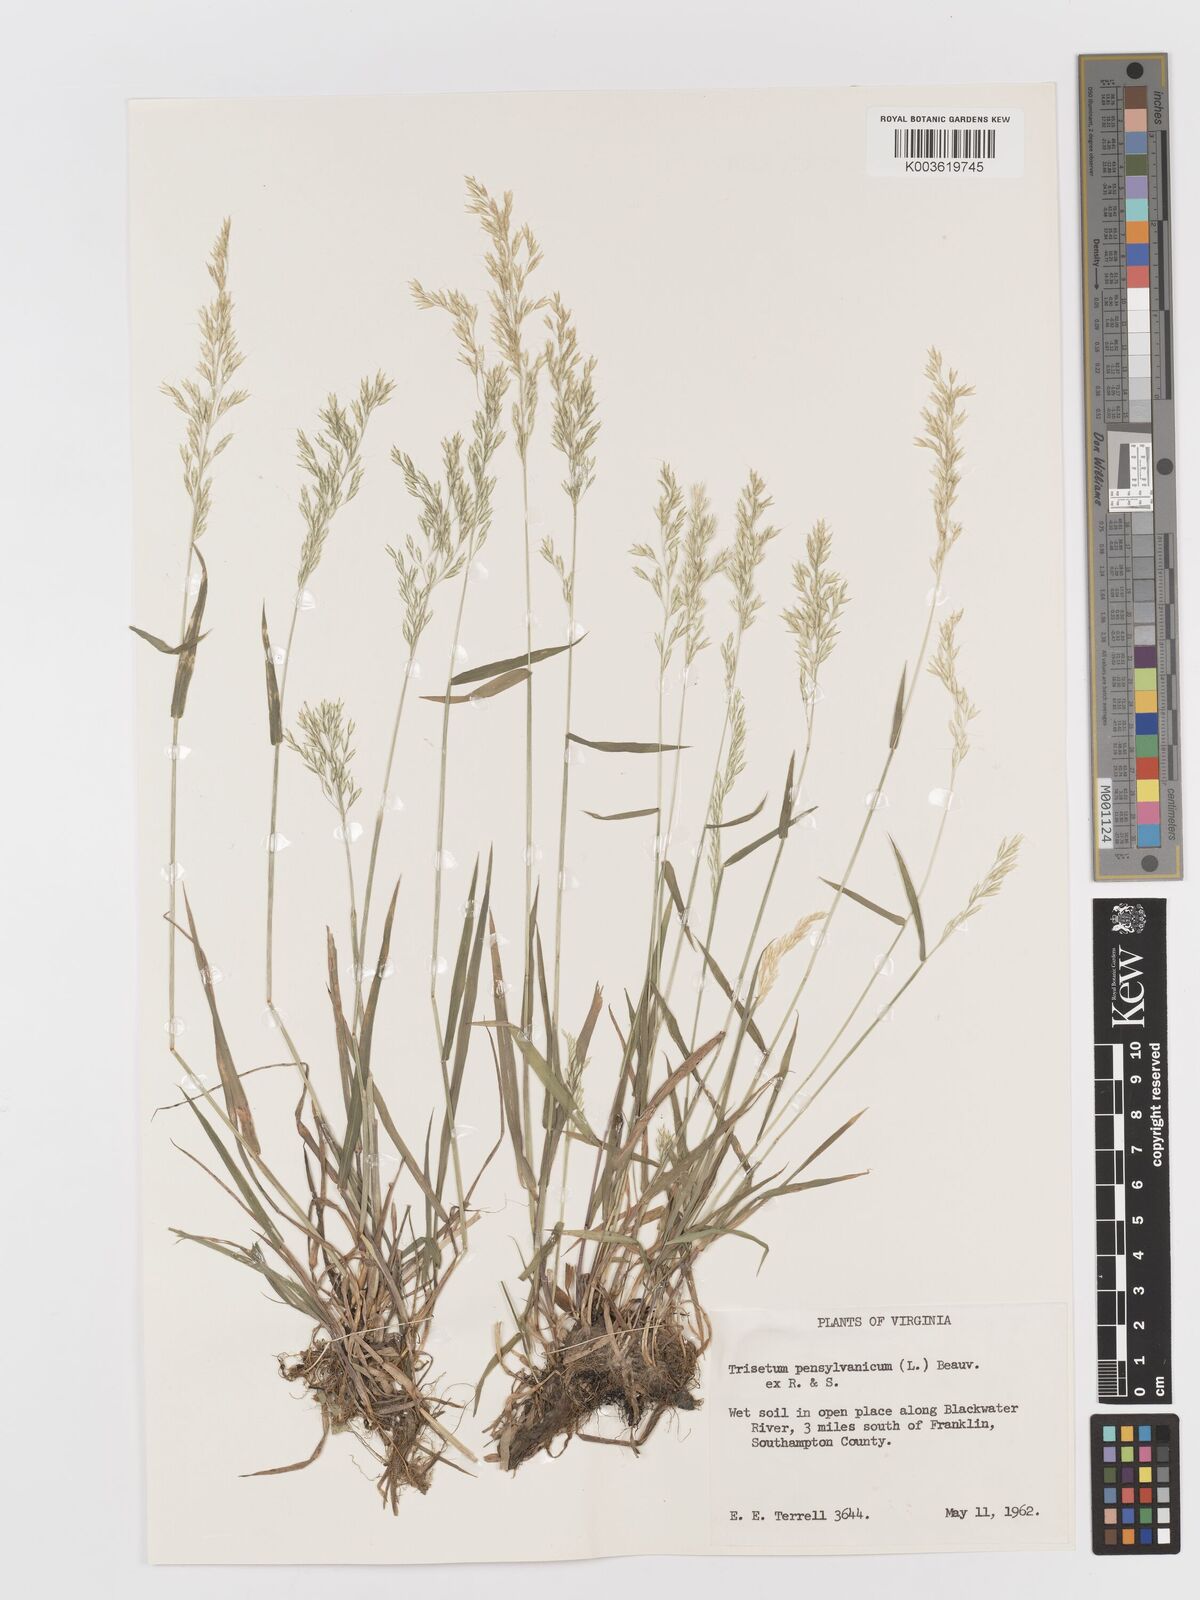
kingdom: Plantae
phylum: Tracheophyta
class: Liliopsida
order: Poales
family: Poaceae
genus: Sphenopholis
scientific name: Sphenopholis pensylvanica
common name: Swamp oats
